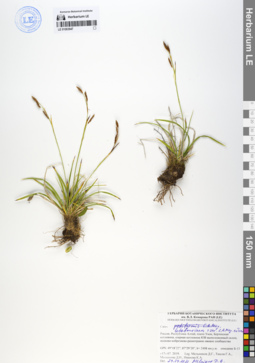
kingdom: Plantae
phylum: Tracheophyta
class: Liliopsida
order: Poales
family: Cyperaceae
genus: Carex
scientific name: Carex ledebouriana
